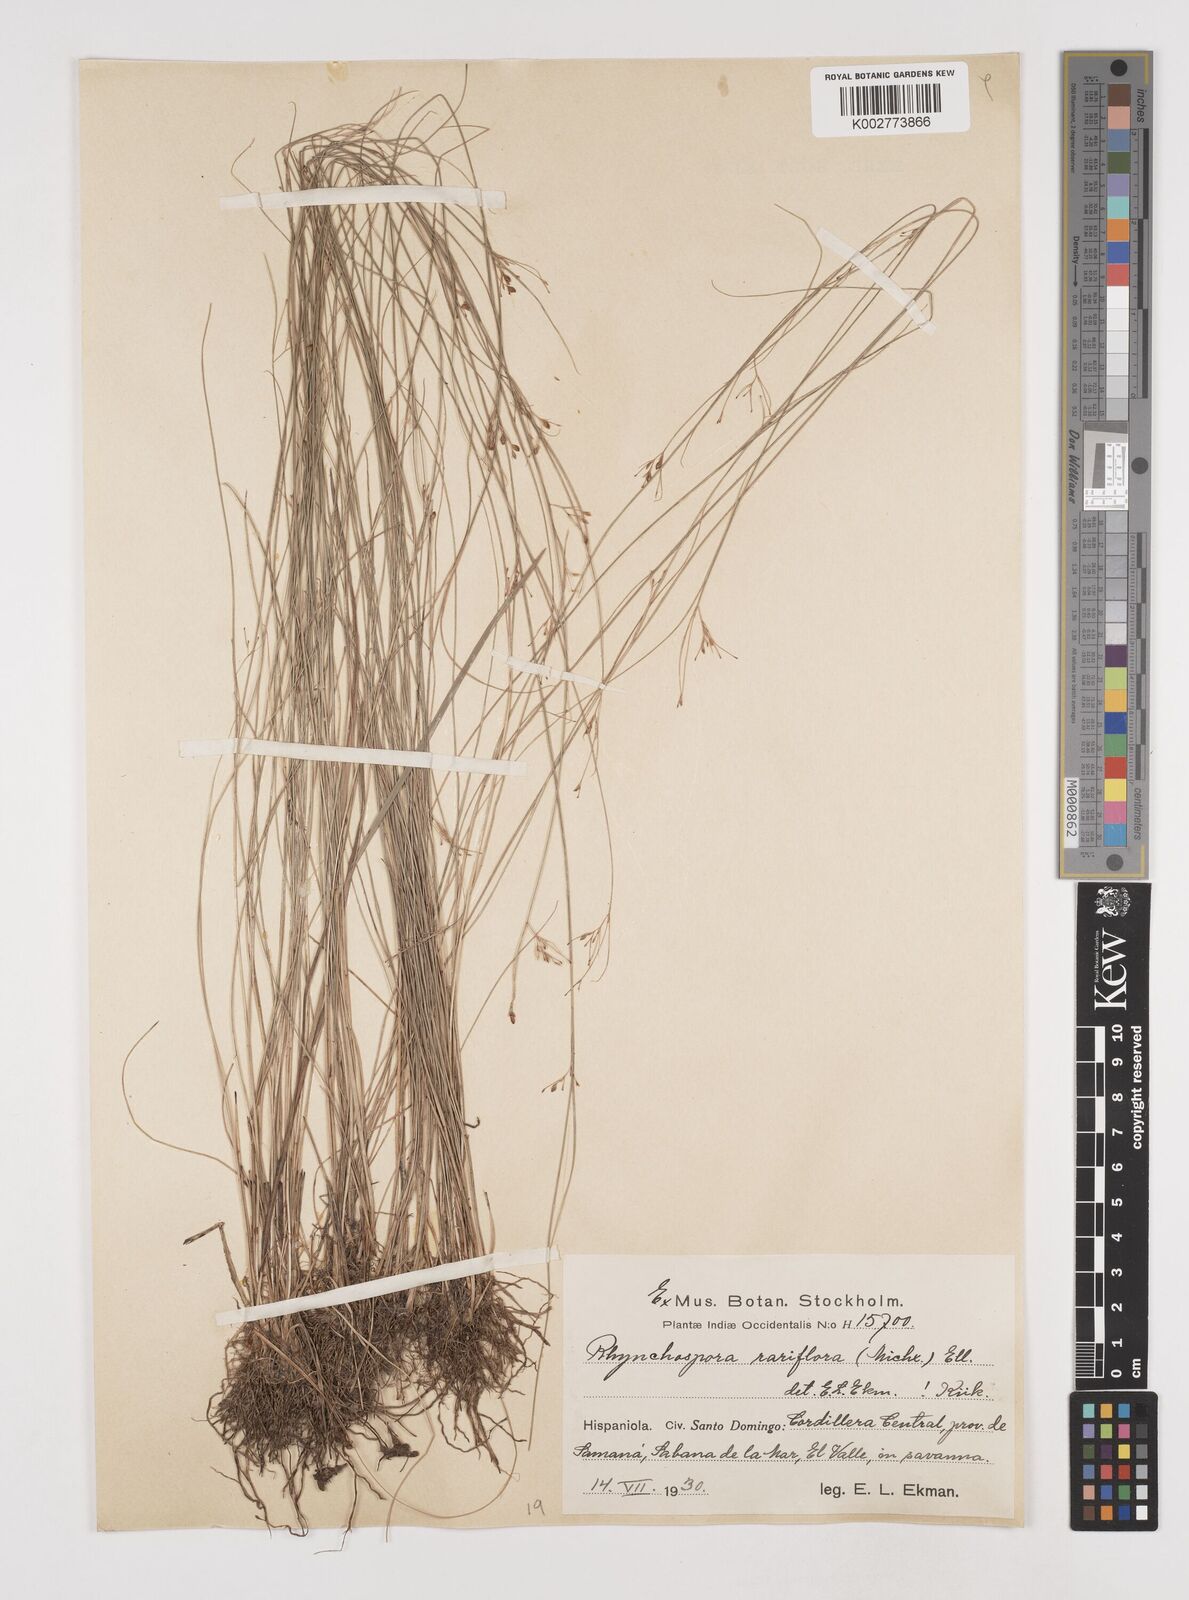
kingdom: Plantae
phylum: Tracheophyta
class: Liliopsida
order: Poales
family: Cyperaceae
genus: Rhynchospora
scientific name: Rhynchospora rariflora
